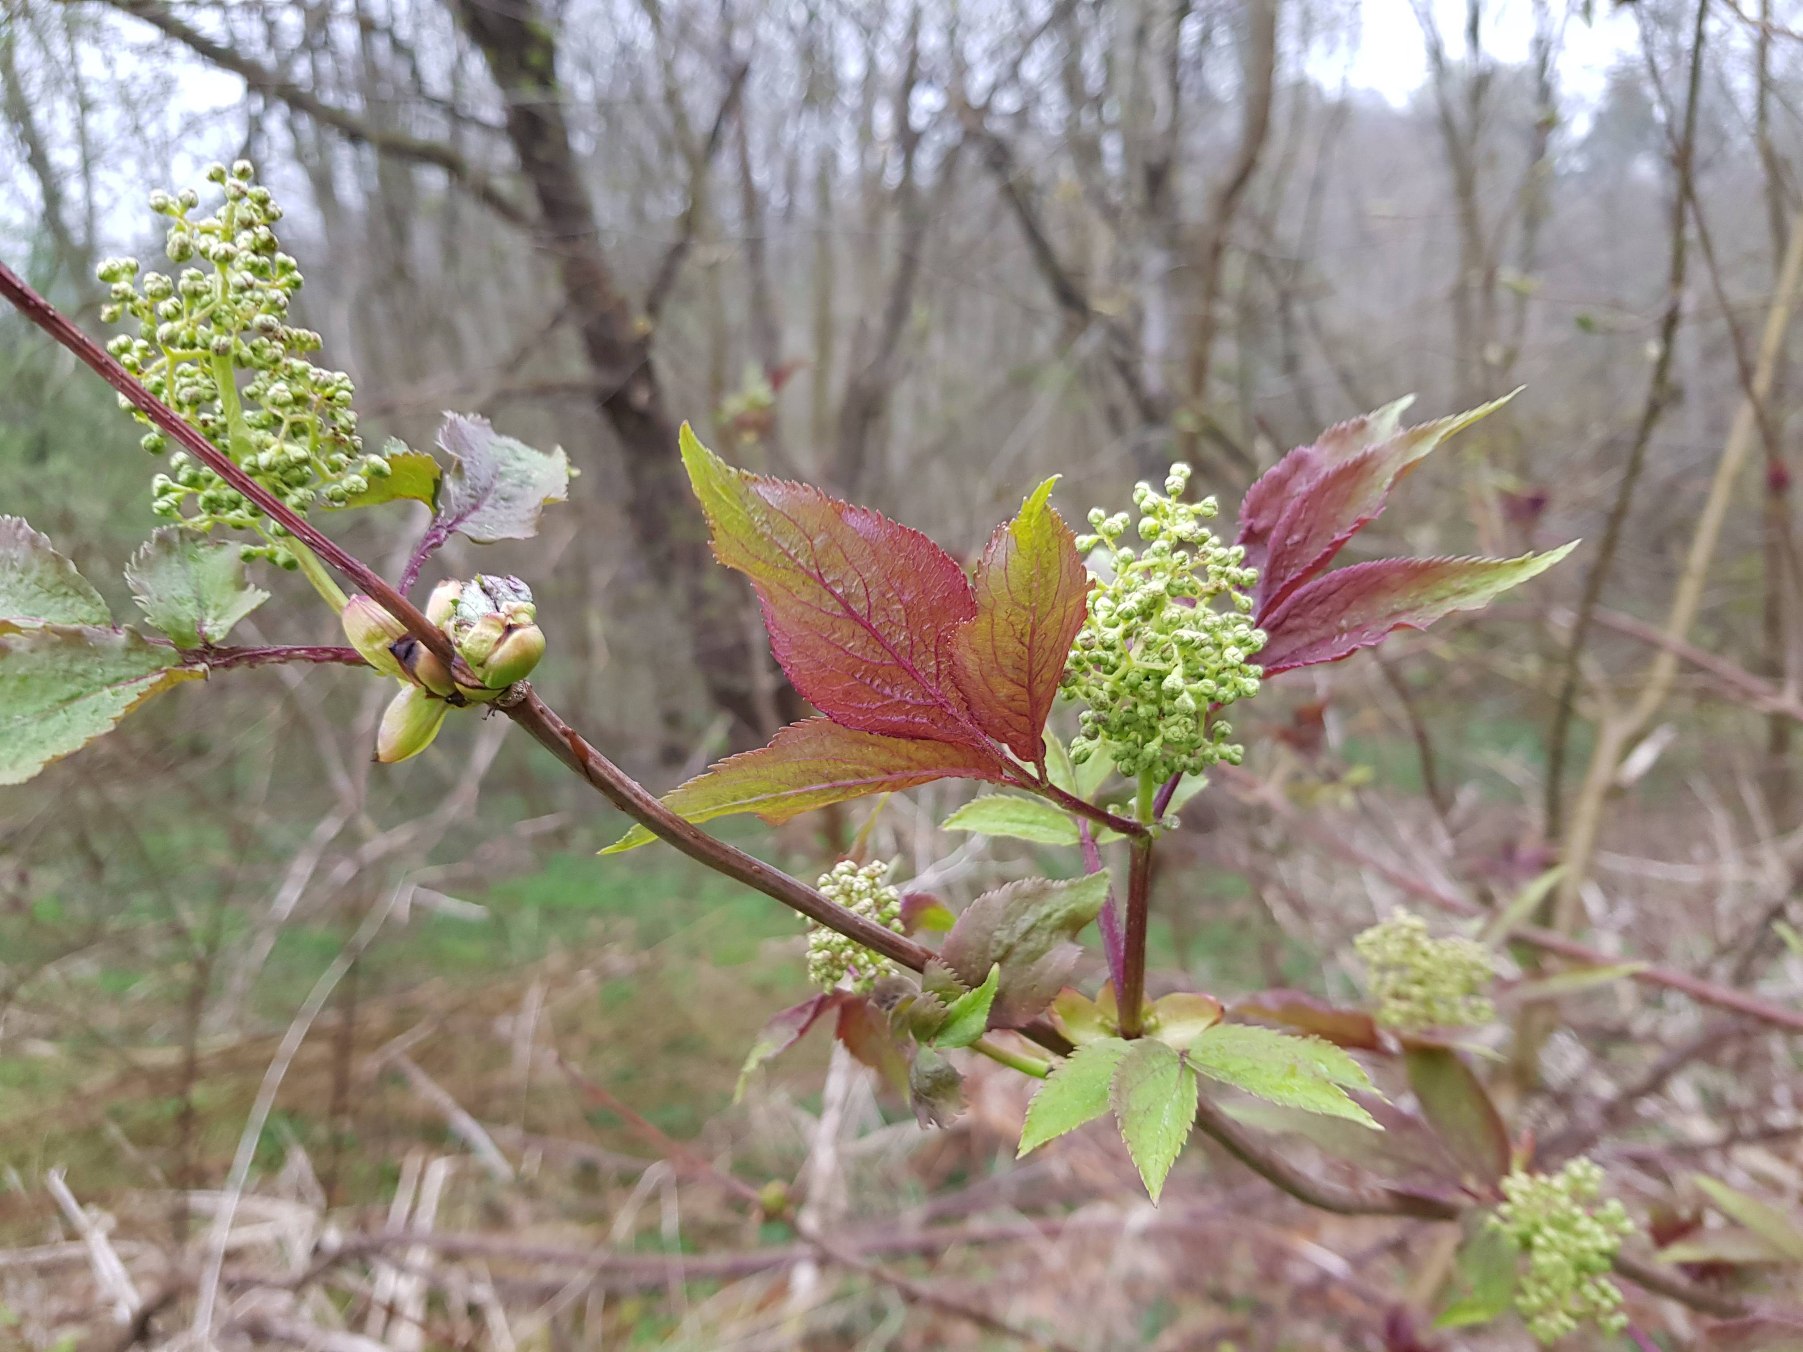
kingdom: Plantae
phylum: Tracheophyta
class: Magnoliopsida
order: Dipsacales
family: Viburnaceae
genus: Sambucus
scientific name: Sambucus racemosa
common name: Drue-hyld
